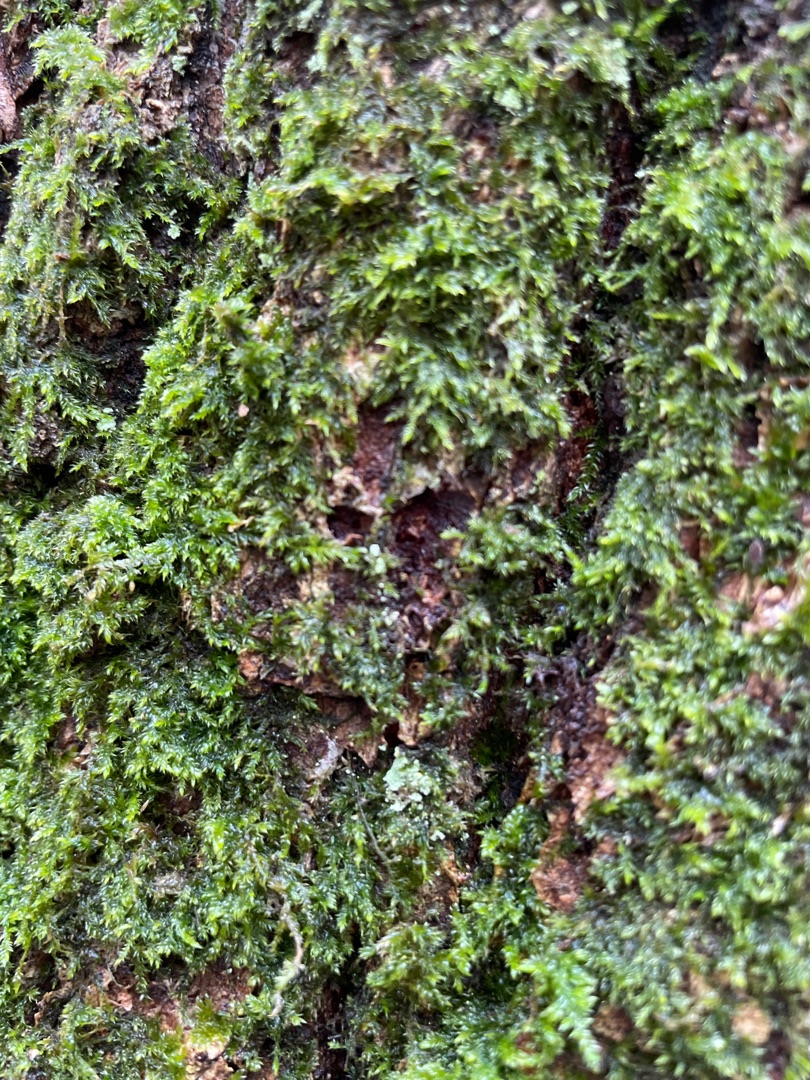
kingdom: Plantae
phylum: Bryophyta
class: Bryopsida
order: Hypnales
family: Hypnaceae
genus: Hypnum
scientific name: Hypnum
